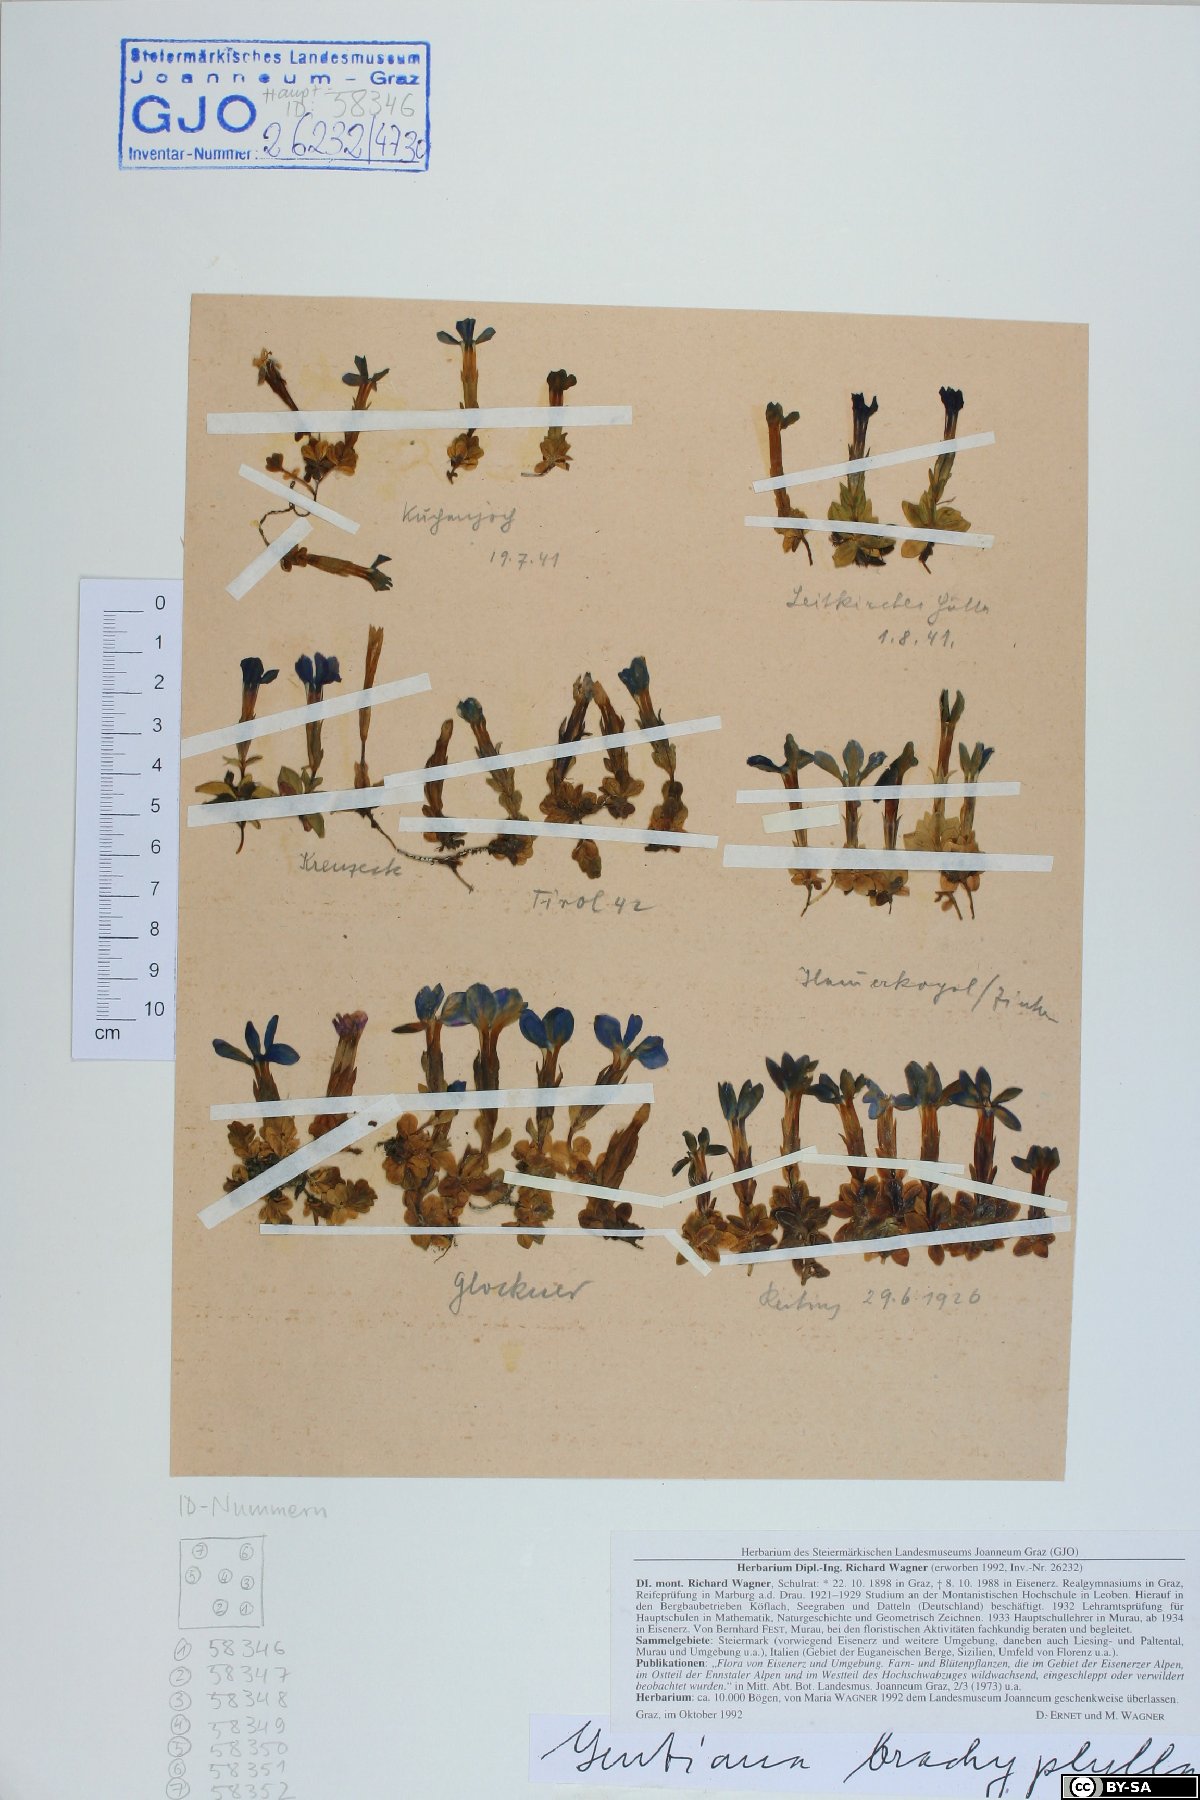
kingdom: Plantae
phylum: Tracheophyta
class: Magnoliopsida
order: Gentianales
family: Gentianaceae
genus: Gentiana
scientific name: Gentiana brachyphylla
